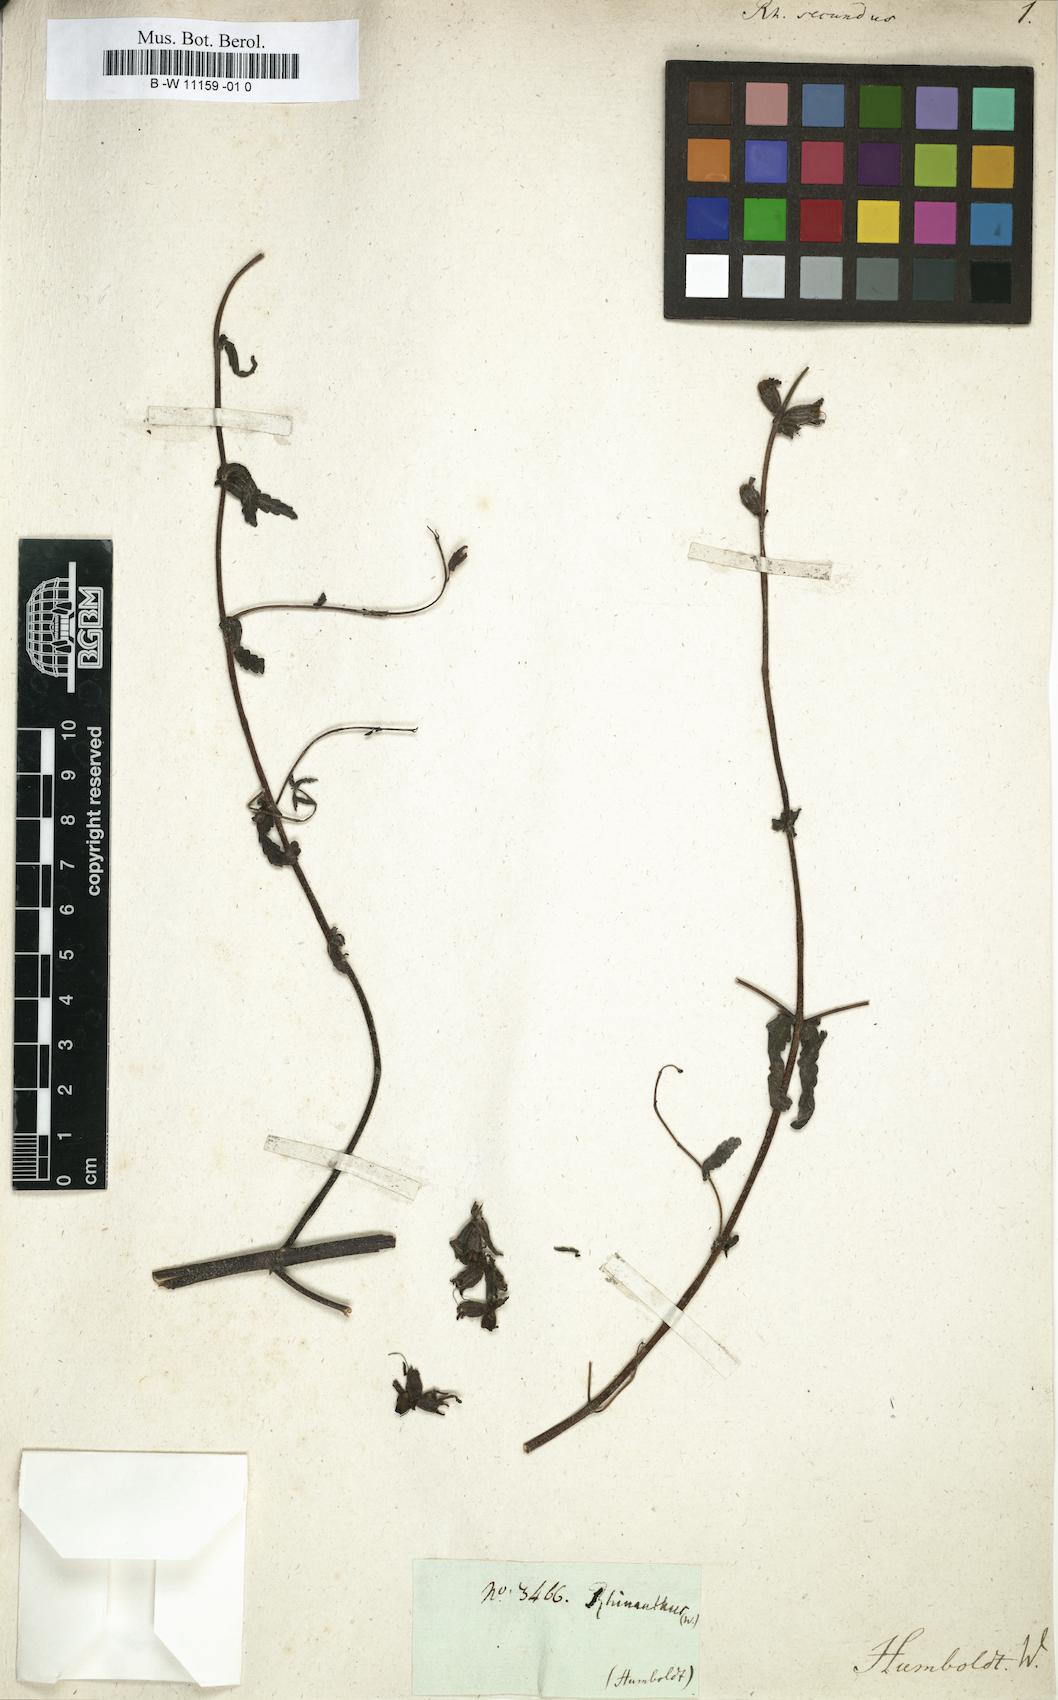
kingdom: Plantae
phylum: Tracheophyta
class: Magnoliopsida
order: Lamiales
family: Orobanchaceae
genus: Rhinanthus
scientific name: Rhinanthus minor
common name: Yellow-rattle
